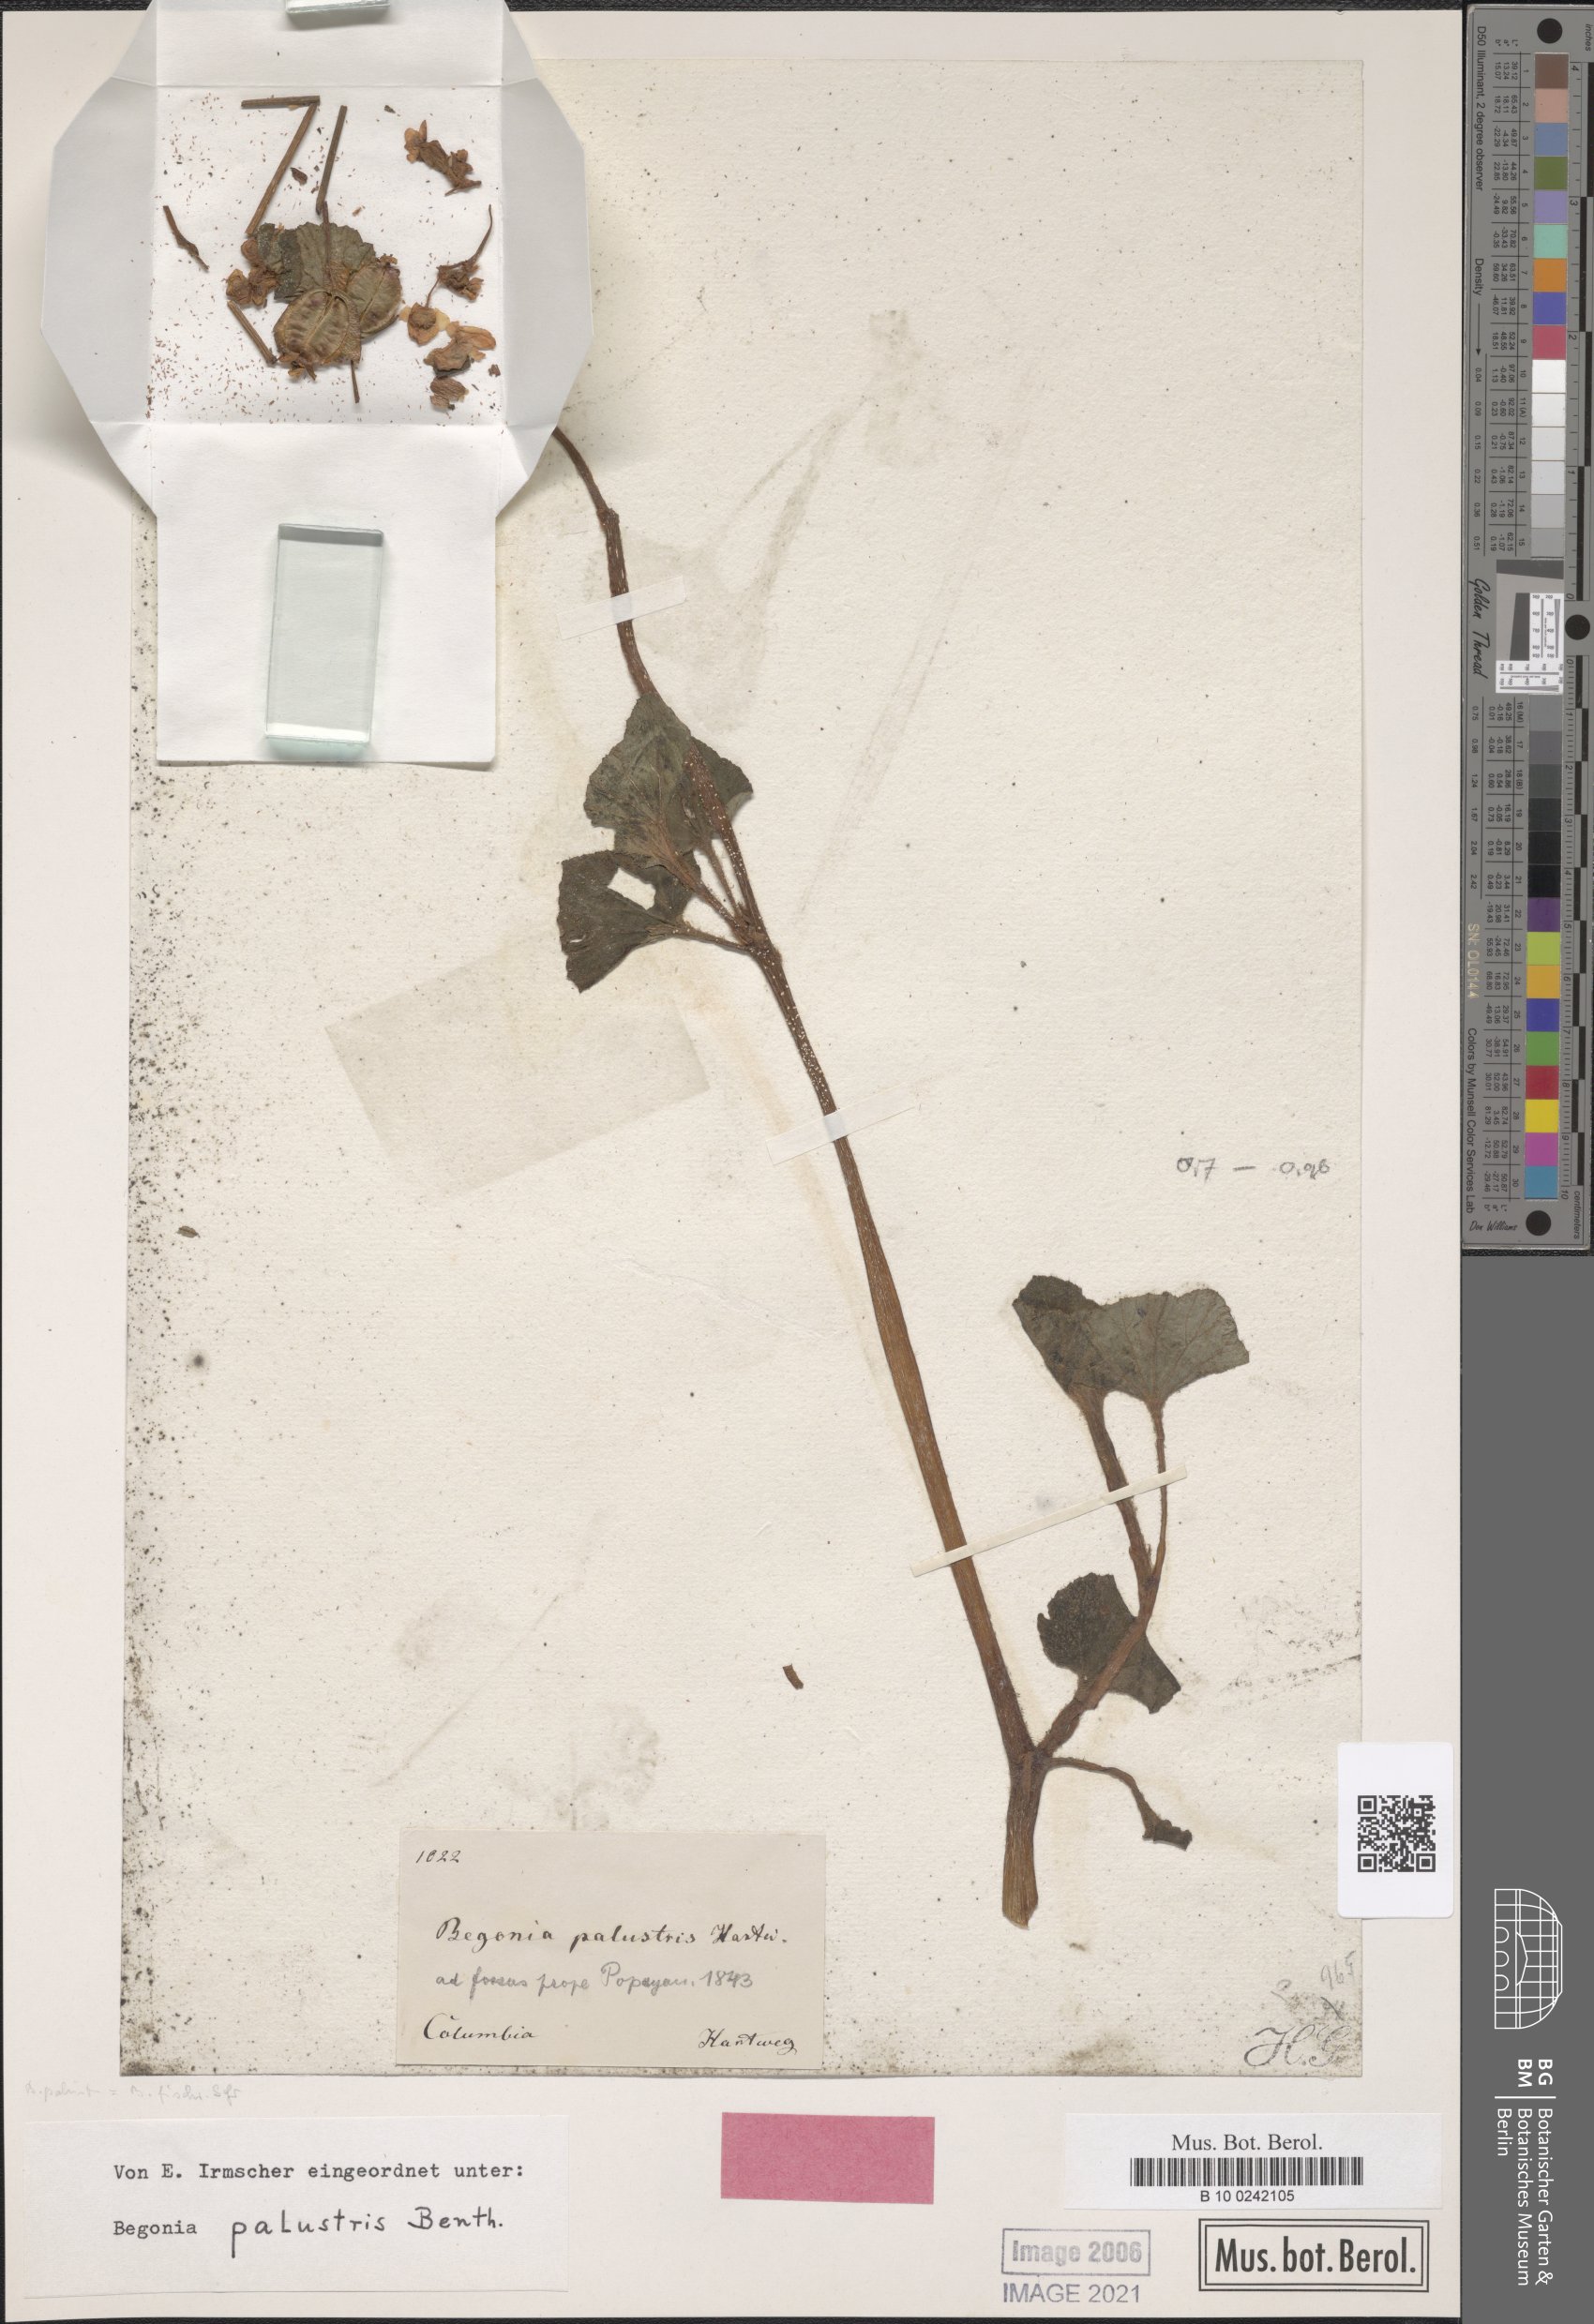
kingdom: Plantae
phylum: Tracheophyta
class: Magnoliopsida
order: Cucurbitales
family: Begoniaceae
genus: Begonia
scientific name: Begonia fischeri
